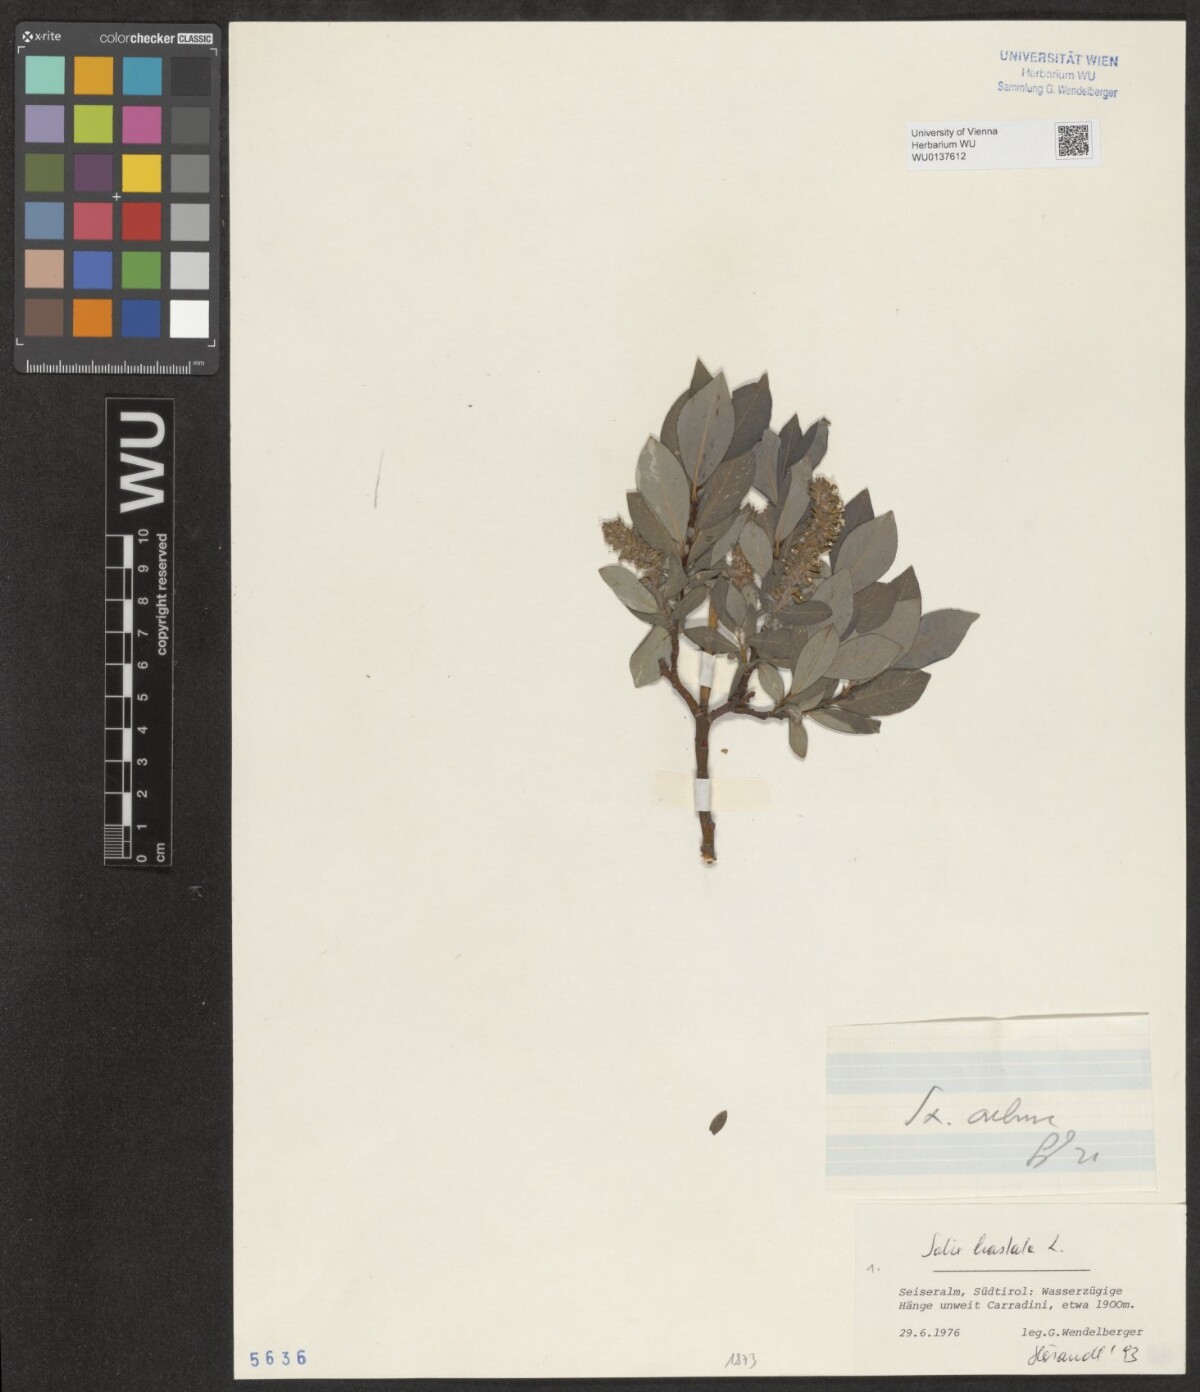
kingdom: Plantae
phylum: Tracheophyta
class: Magnoliopsida
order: Malpighiales
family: Salicaceae
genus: Salix
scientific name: Salix hastata
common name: Halberd willow
